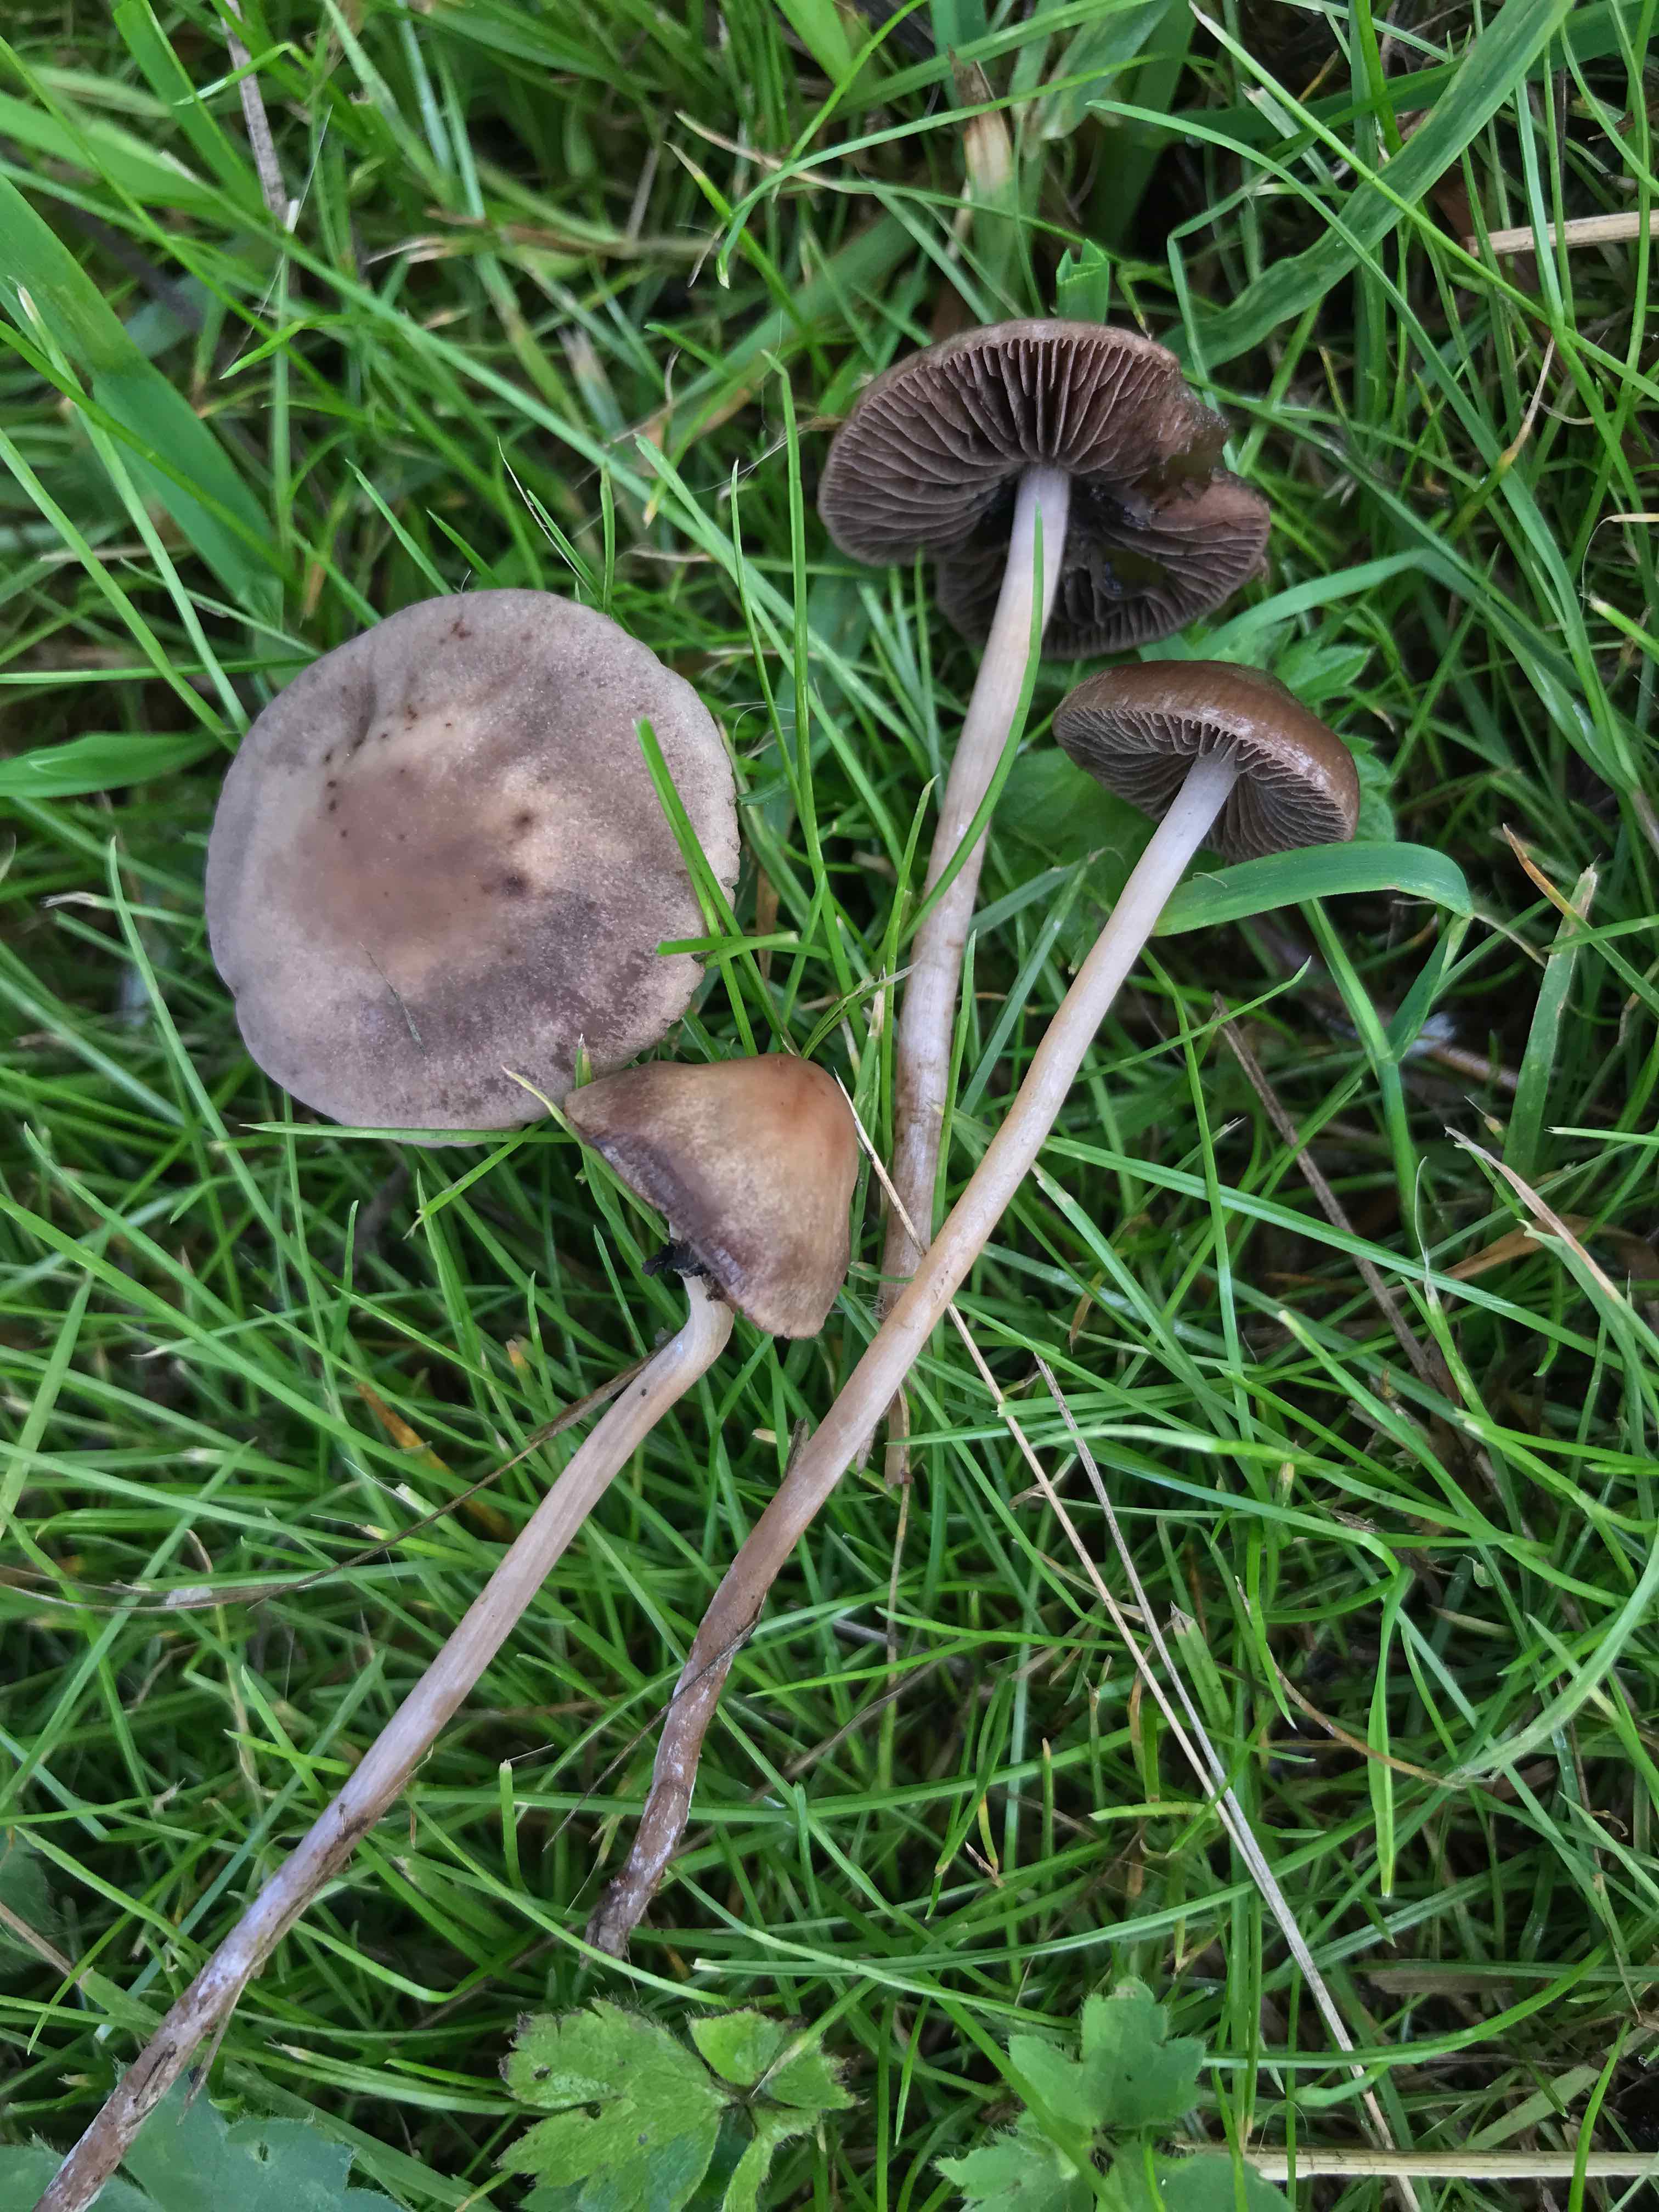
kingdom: Fungi
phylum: Basidiomycota
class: Agaricomycetes
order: Agaricales
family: Bolbitiaceae
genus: Panaeolina
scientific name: Panaeolina foenisecii
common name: høslætsvamp
